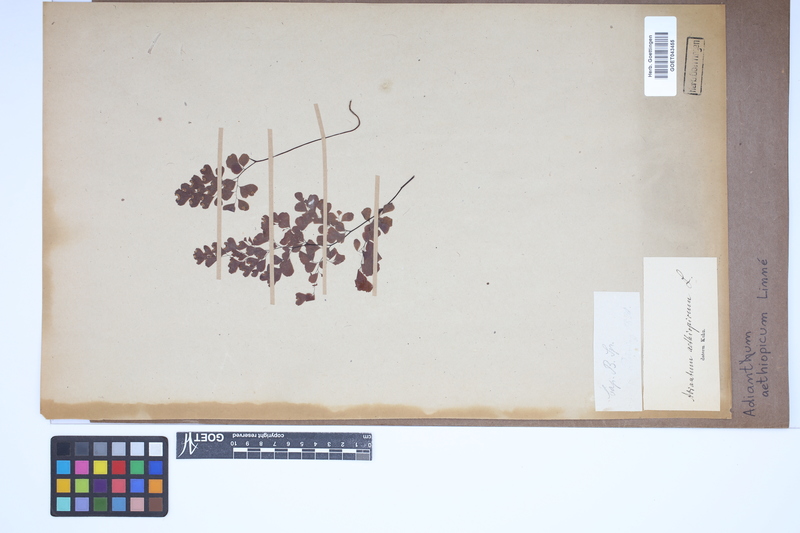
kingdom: Plantae
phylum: Tracheophyta
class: Polypodiopsida
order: Polypodiales
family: Pteridaceae
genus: Adiantum
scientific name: Adiantum aethiopicum
